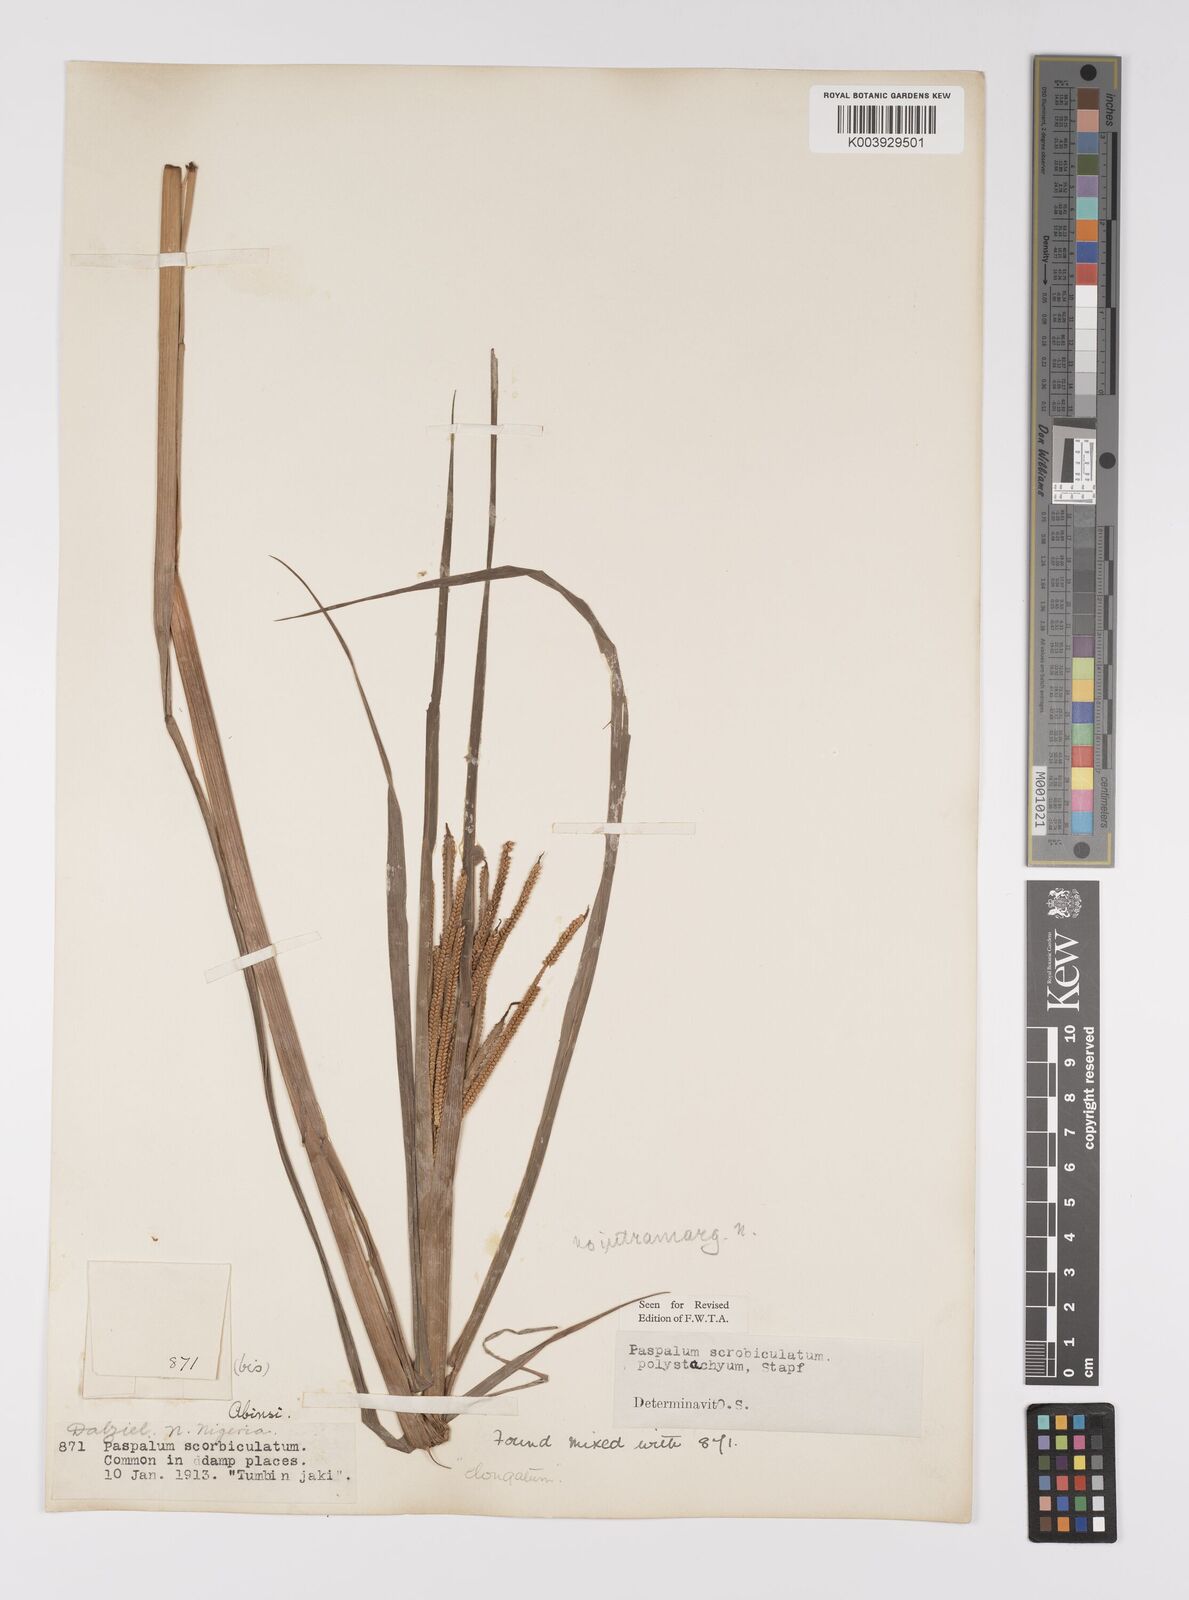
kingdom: Plantae
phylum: Tracheophyta
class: Liliopsida
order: Poales
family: Poaceae
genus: Paspalum
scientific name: Paspalum scrobiculatum
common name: Kodo millet
